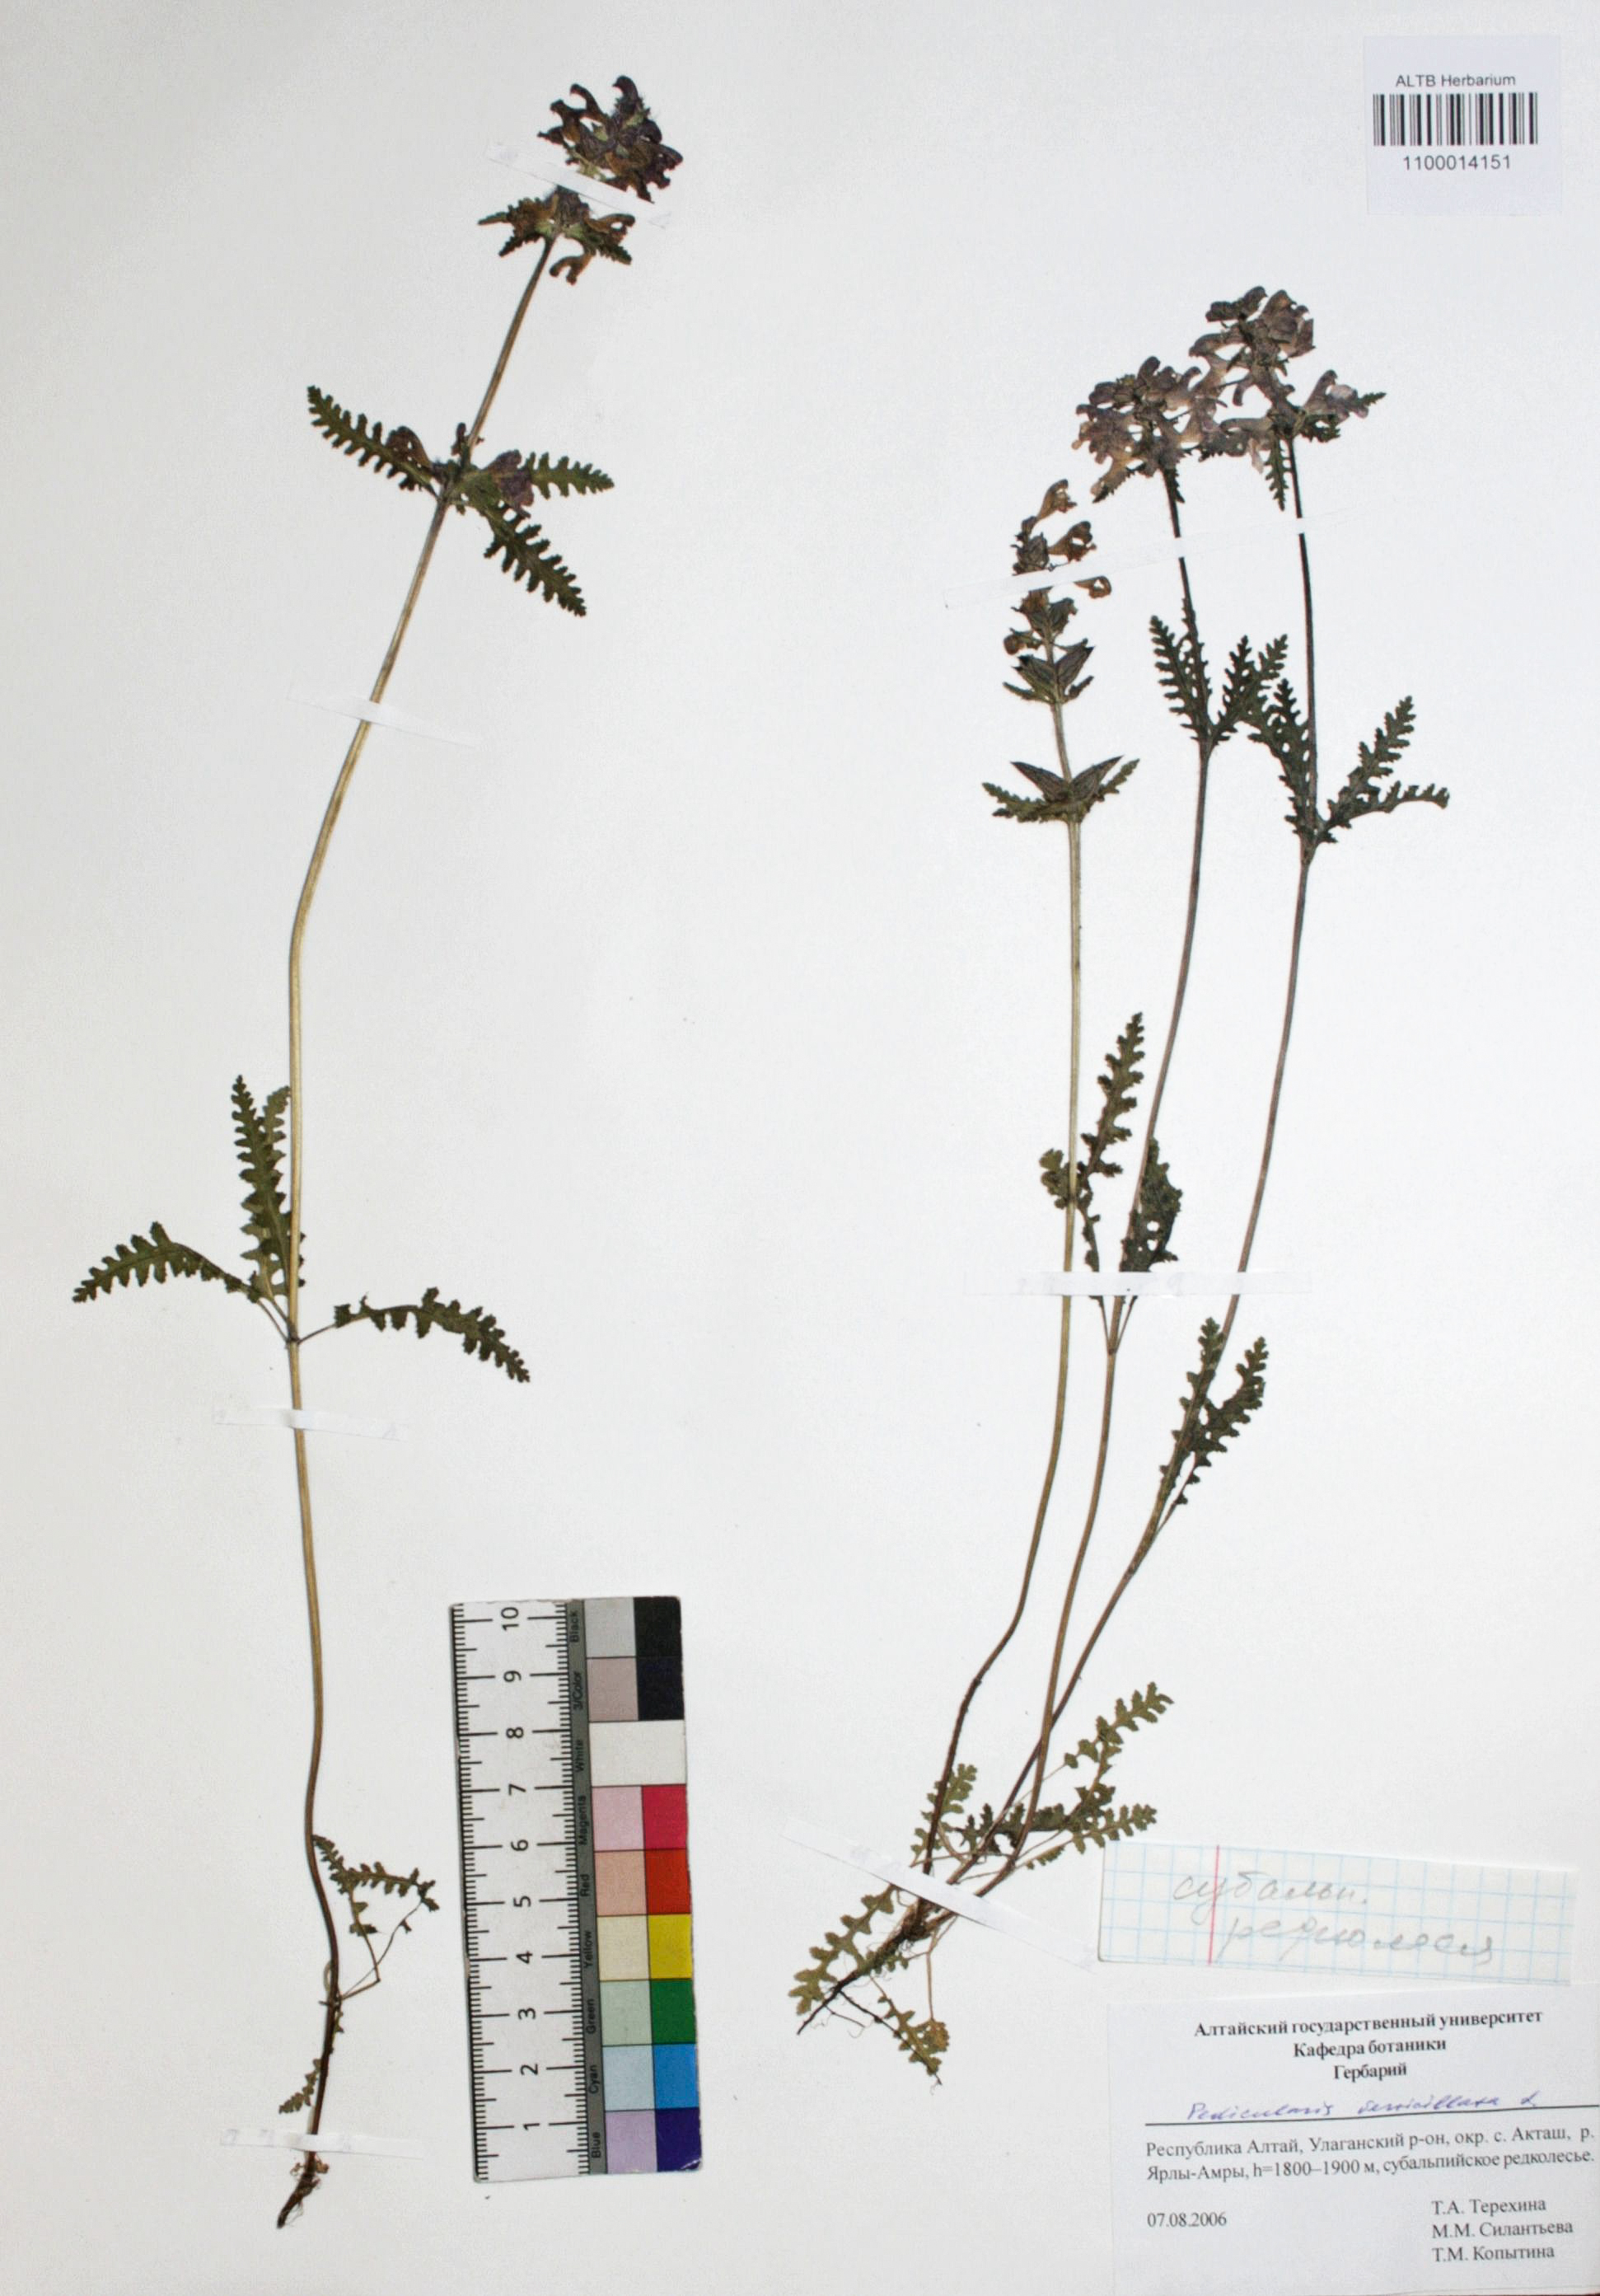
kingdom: Plantae
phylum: Tracheophyta
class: Magnoliopsida
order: Lamiales
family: Orobanchaceae
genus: Pedicularis
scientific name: Pedicularis verticillata
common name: Whorled lousewort
